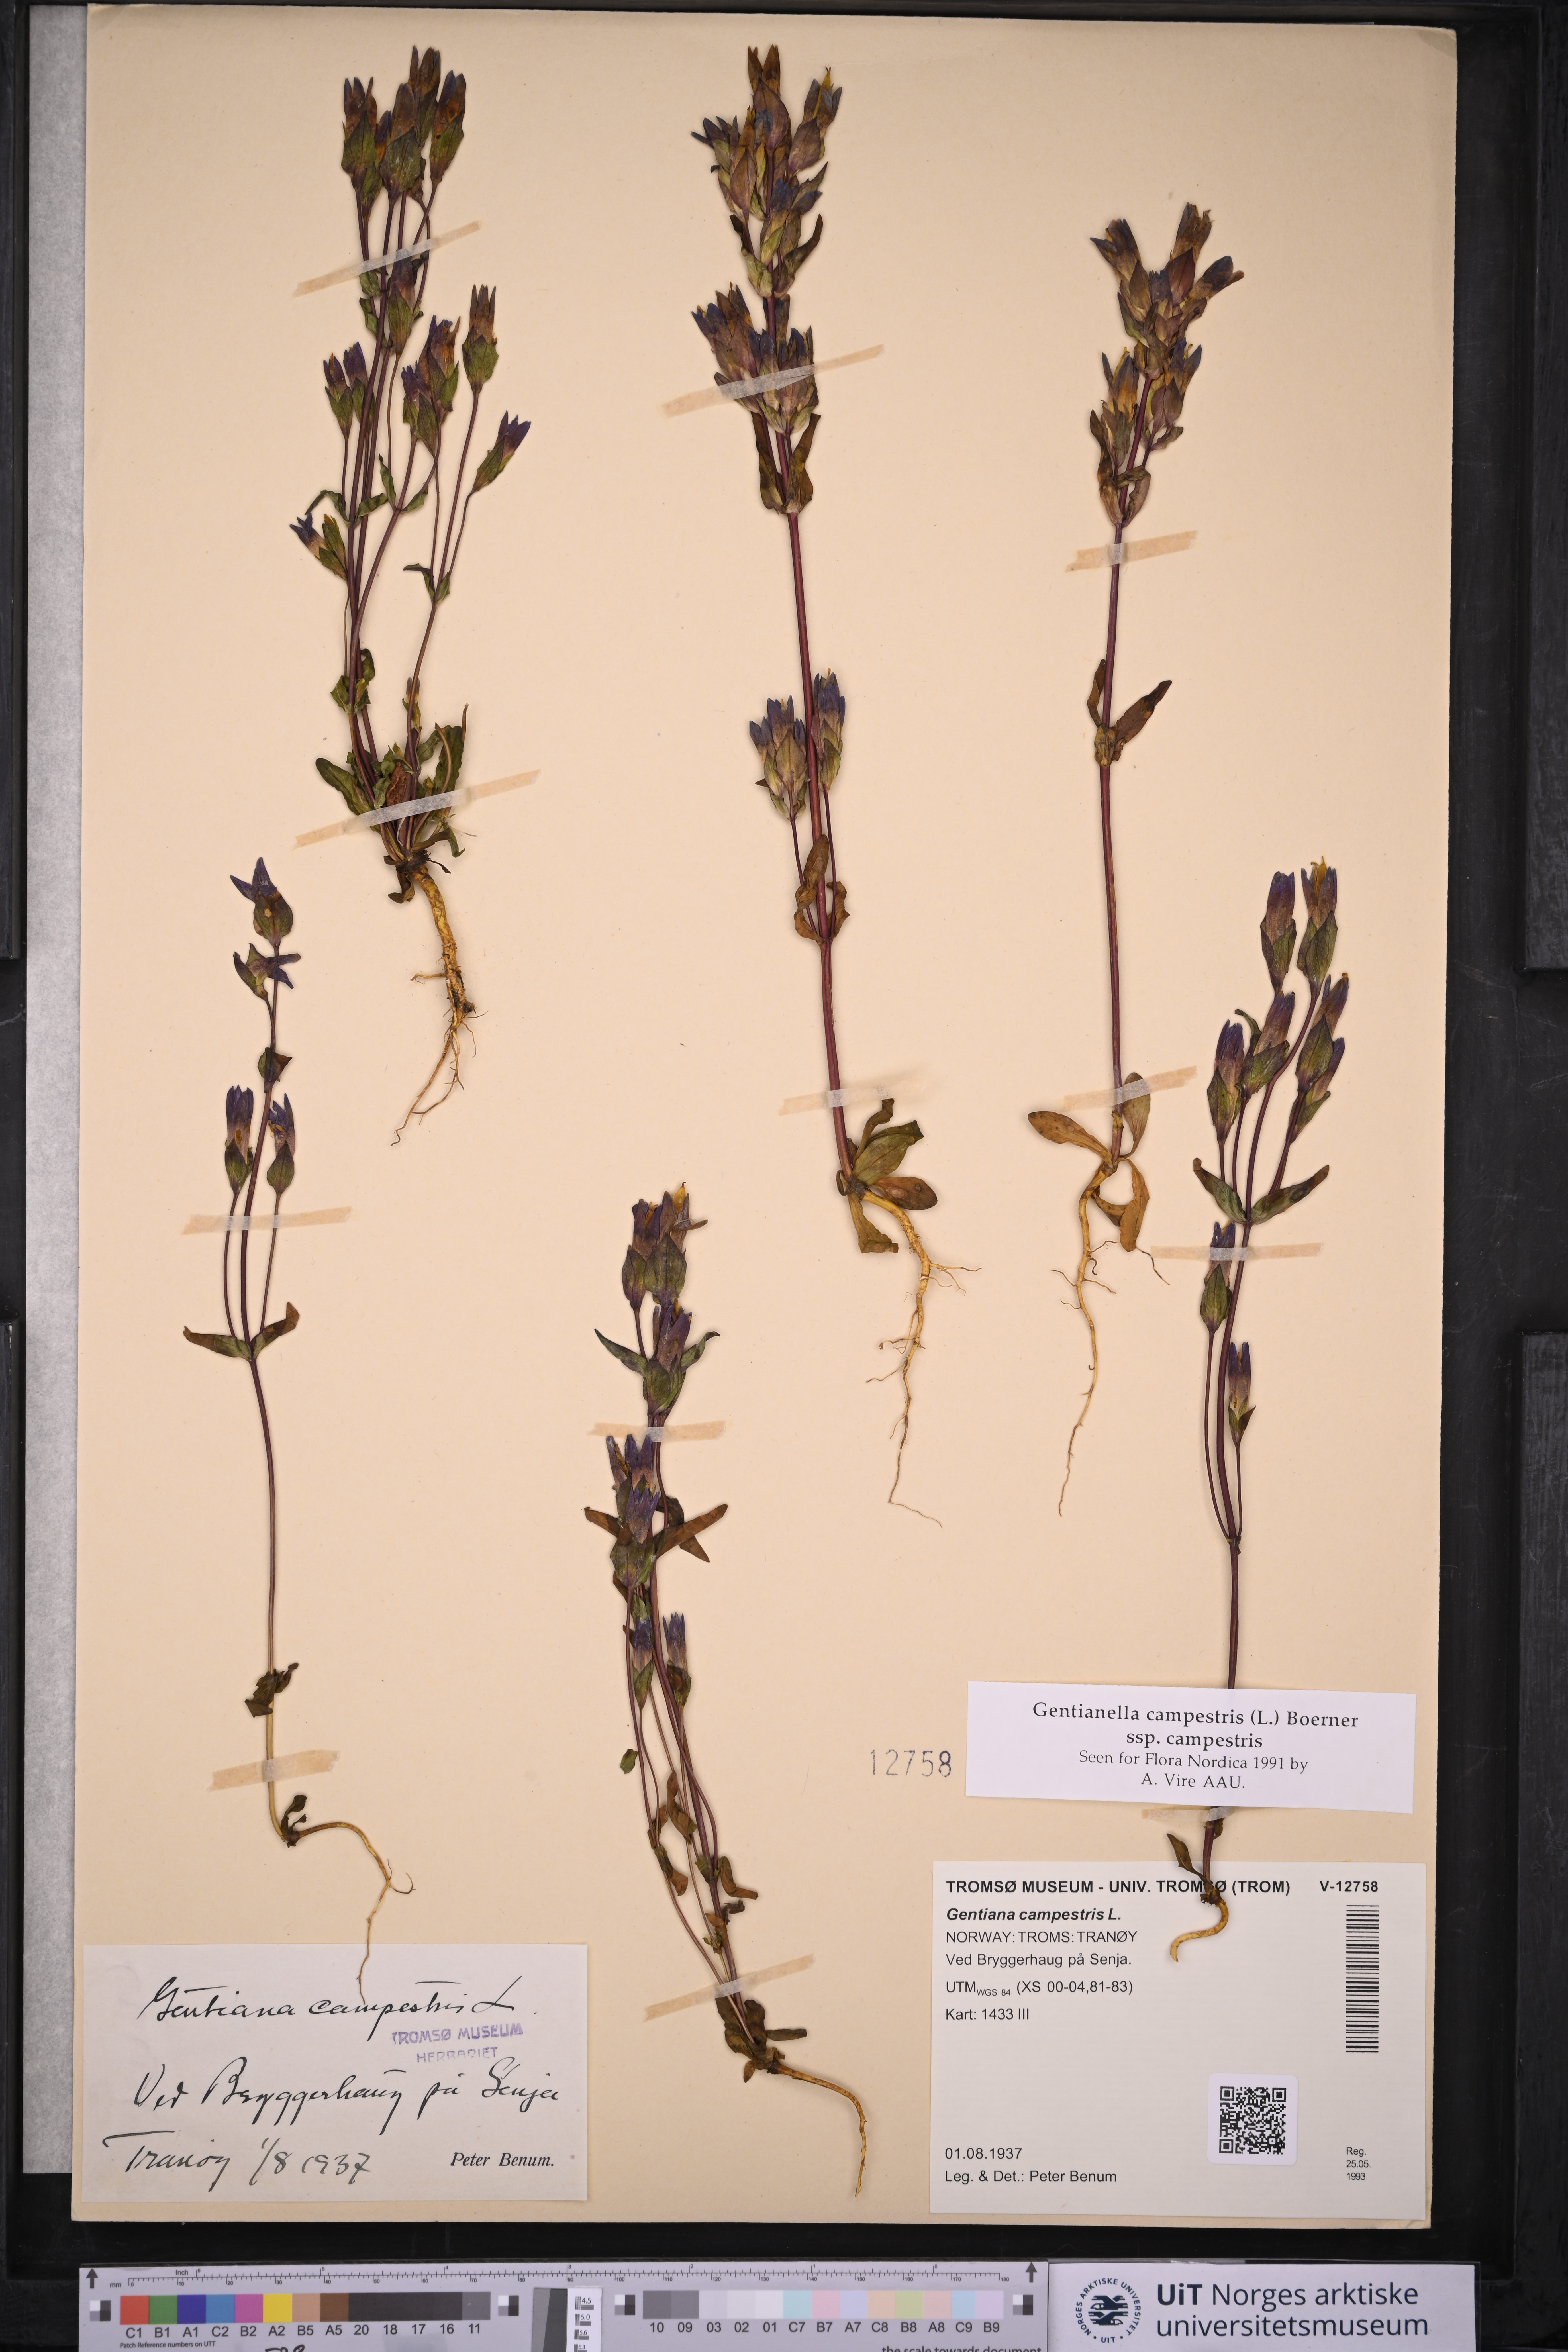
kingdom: Plantae
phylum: Tracheophyta
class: Magnoliopsida
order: Gentianales
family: Gentianaceae
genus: Gentianella
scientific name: Gentianella campestris
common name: Field gentian
